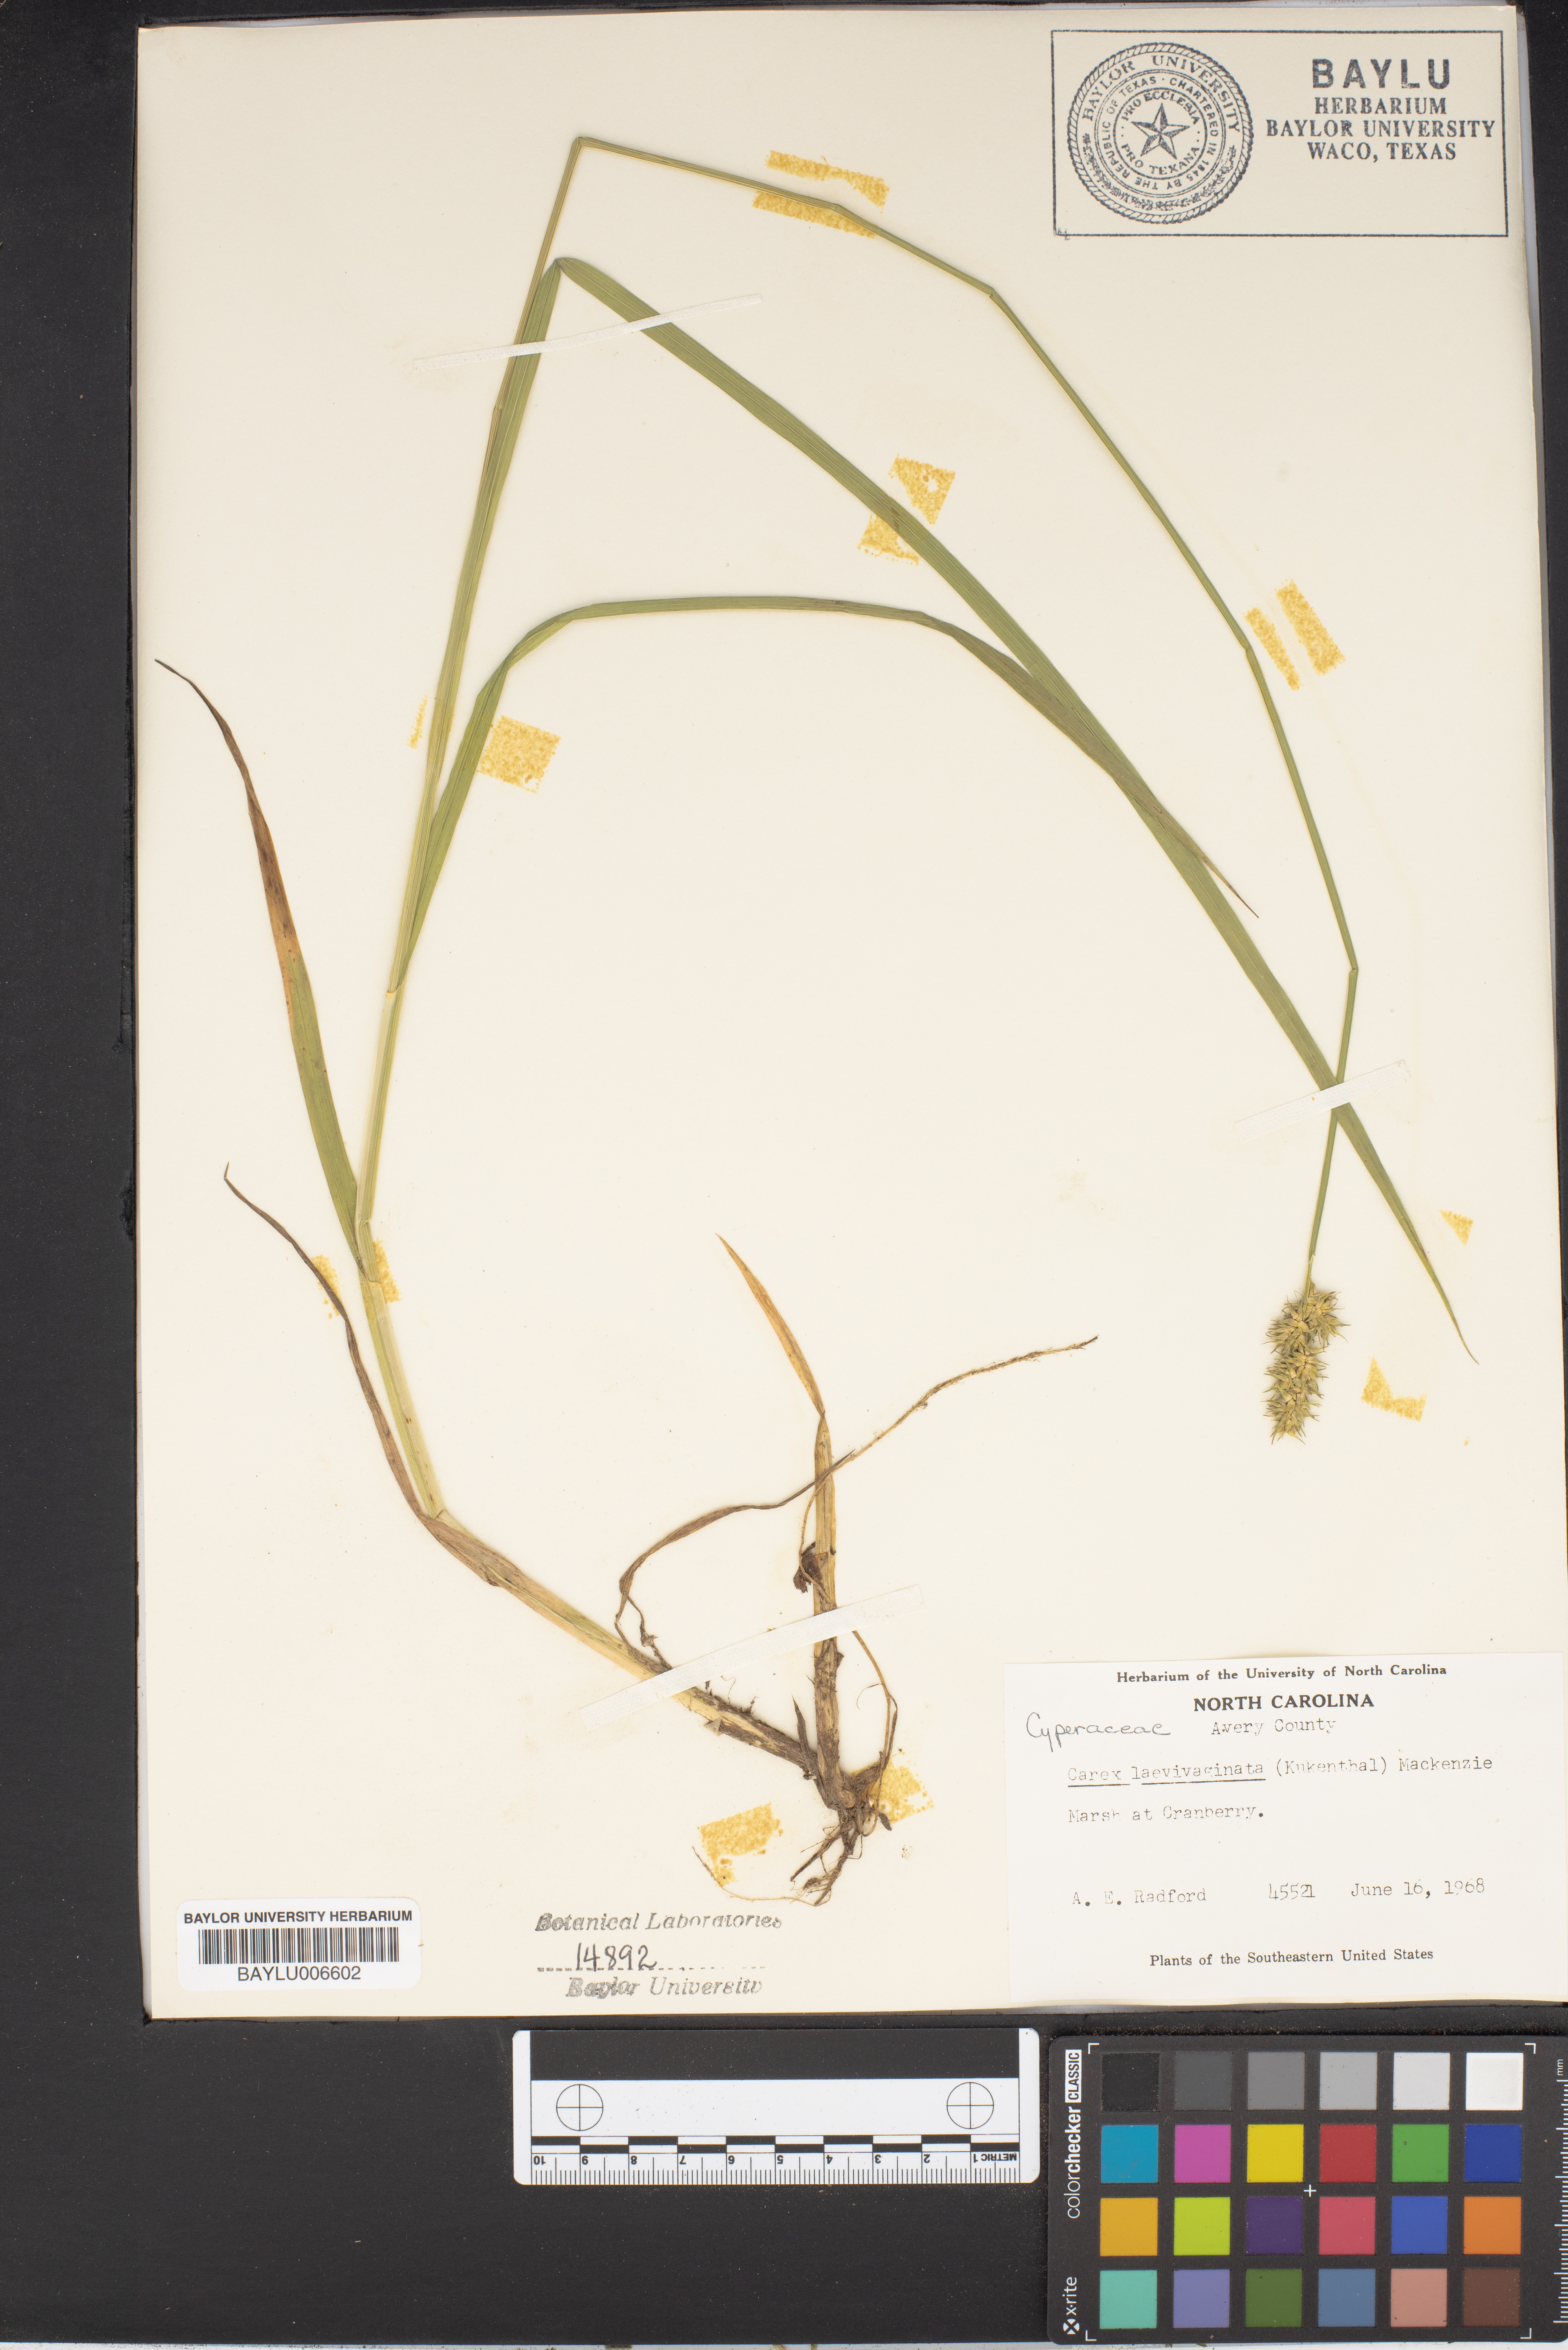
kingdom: Plantae
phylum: Tracheophyta
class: Liliopsida
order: Poales
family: Cyperaceae
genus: Carex
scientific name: Carex laevivaginata
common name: Smooth-sheathed fox sedge
